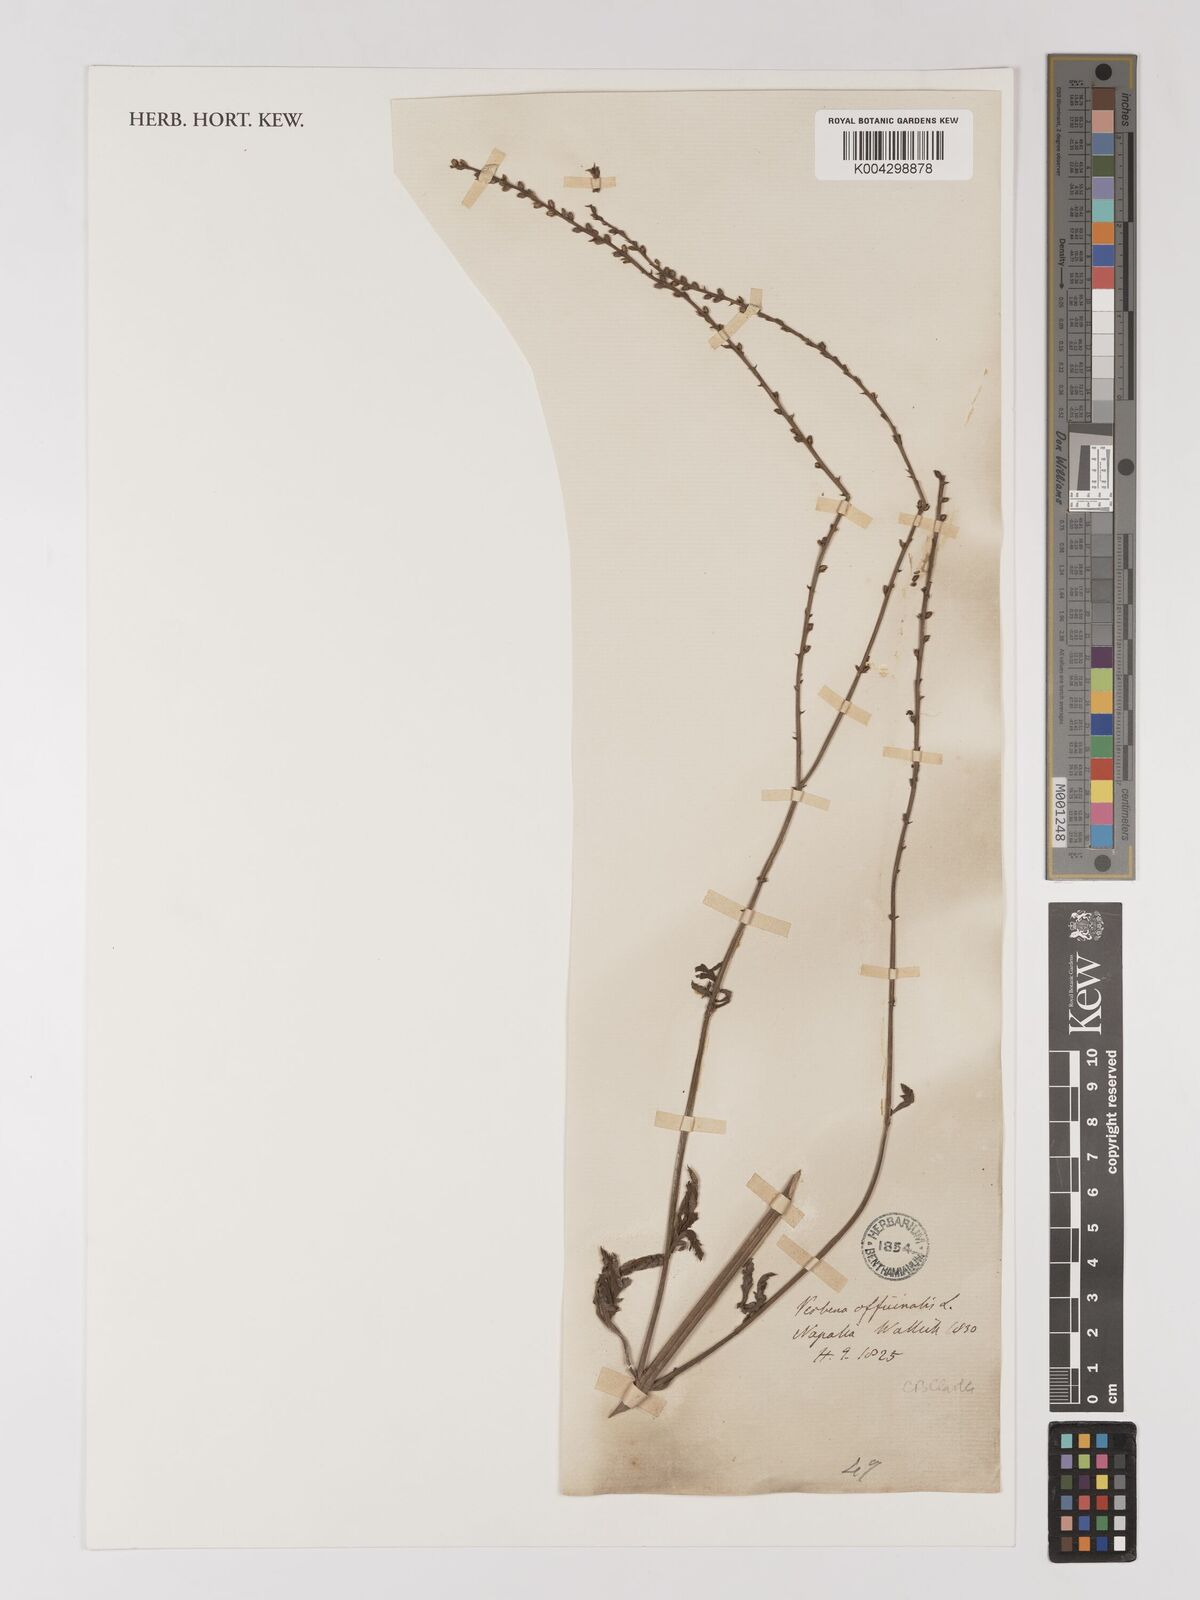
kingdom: Plantae
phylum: Tracheophyta
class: Magnoliopsida
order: Lamiales
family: Verbenaceae
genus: Verbena
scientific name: Verbena officinalis
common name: Vervain
